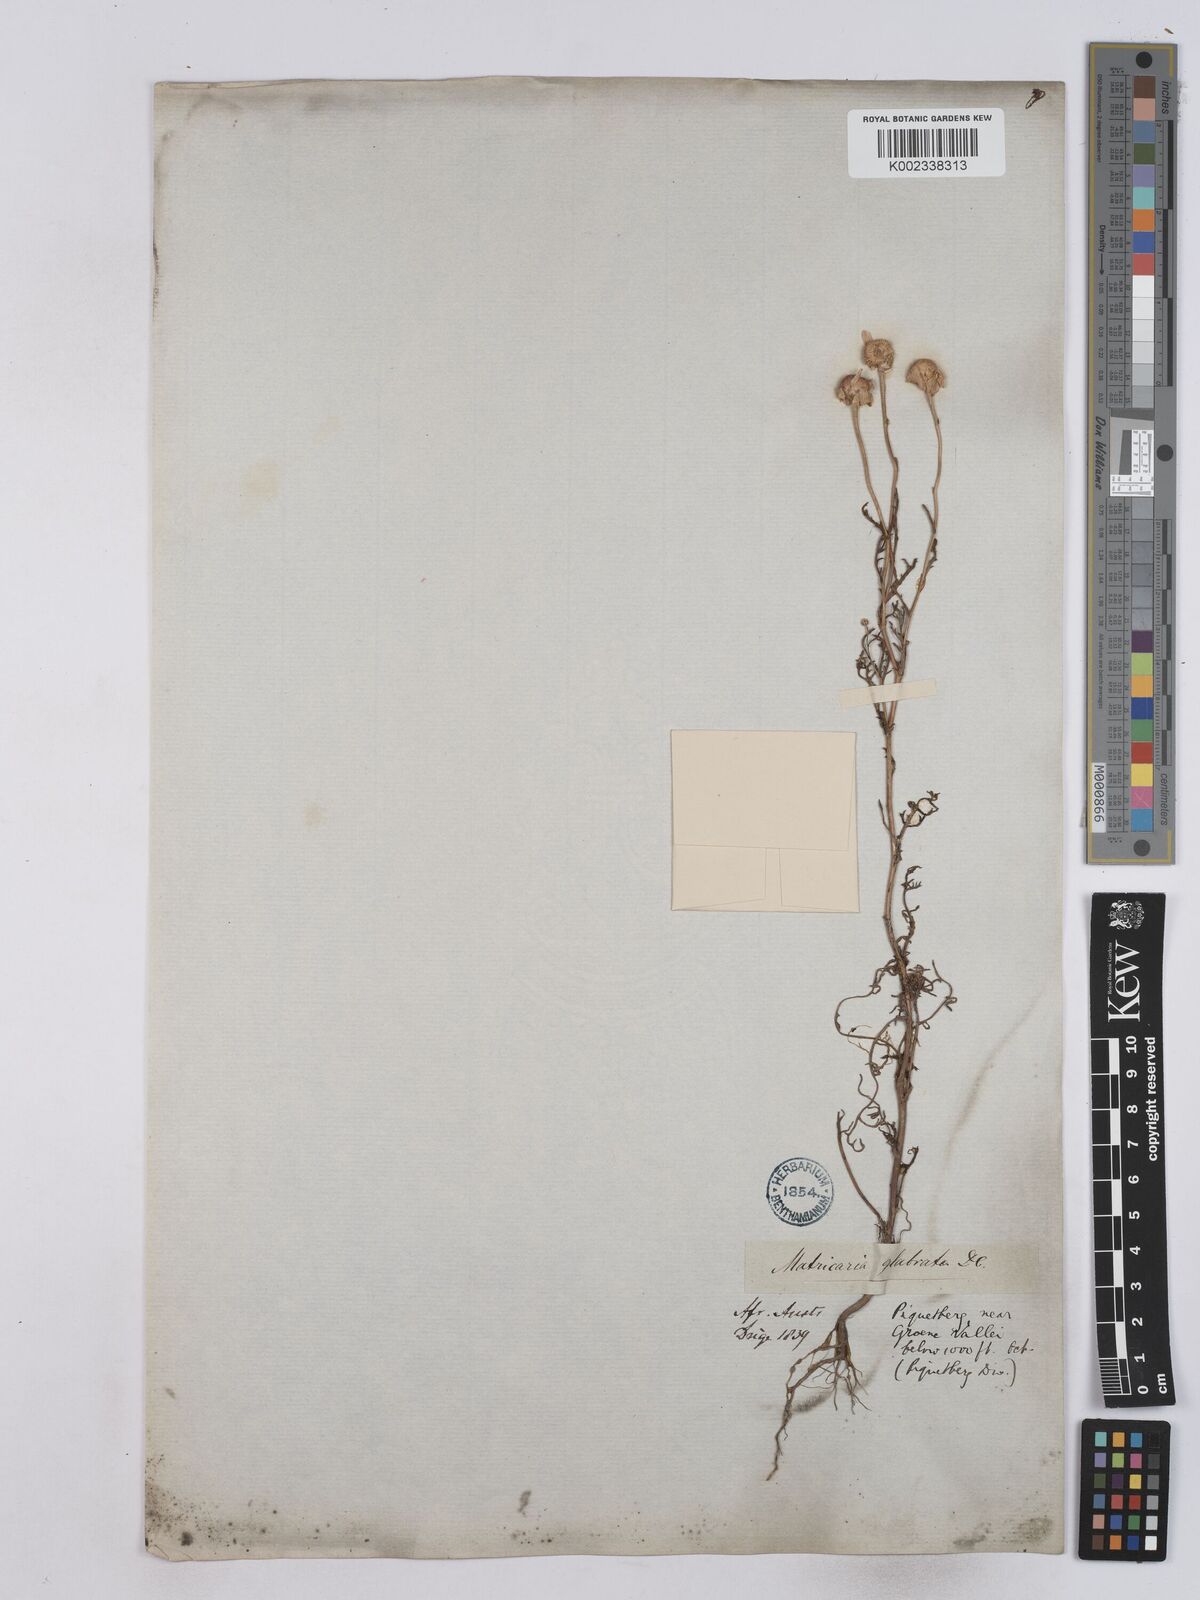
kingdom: Plantae
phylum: Tracheophyta
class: Magnoliopsida
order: Asterales
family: Asteraceae
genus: Oncosiphon
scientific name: Oncosiphon glabratus
